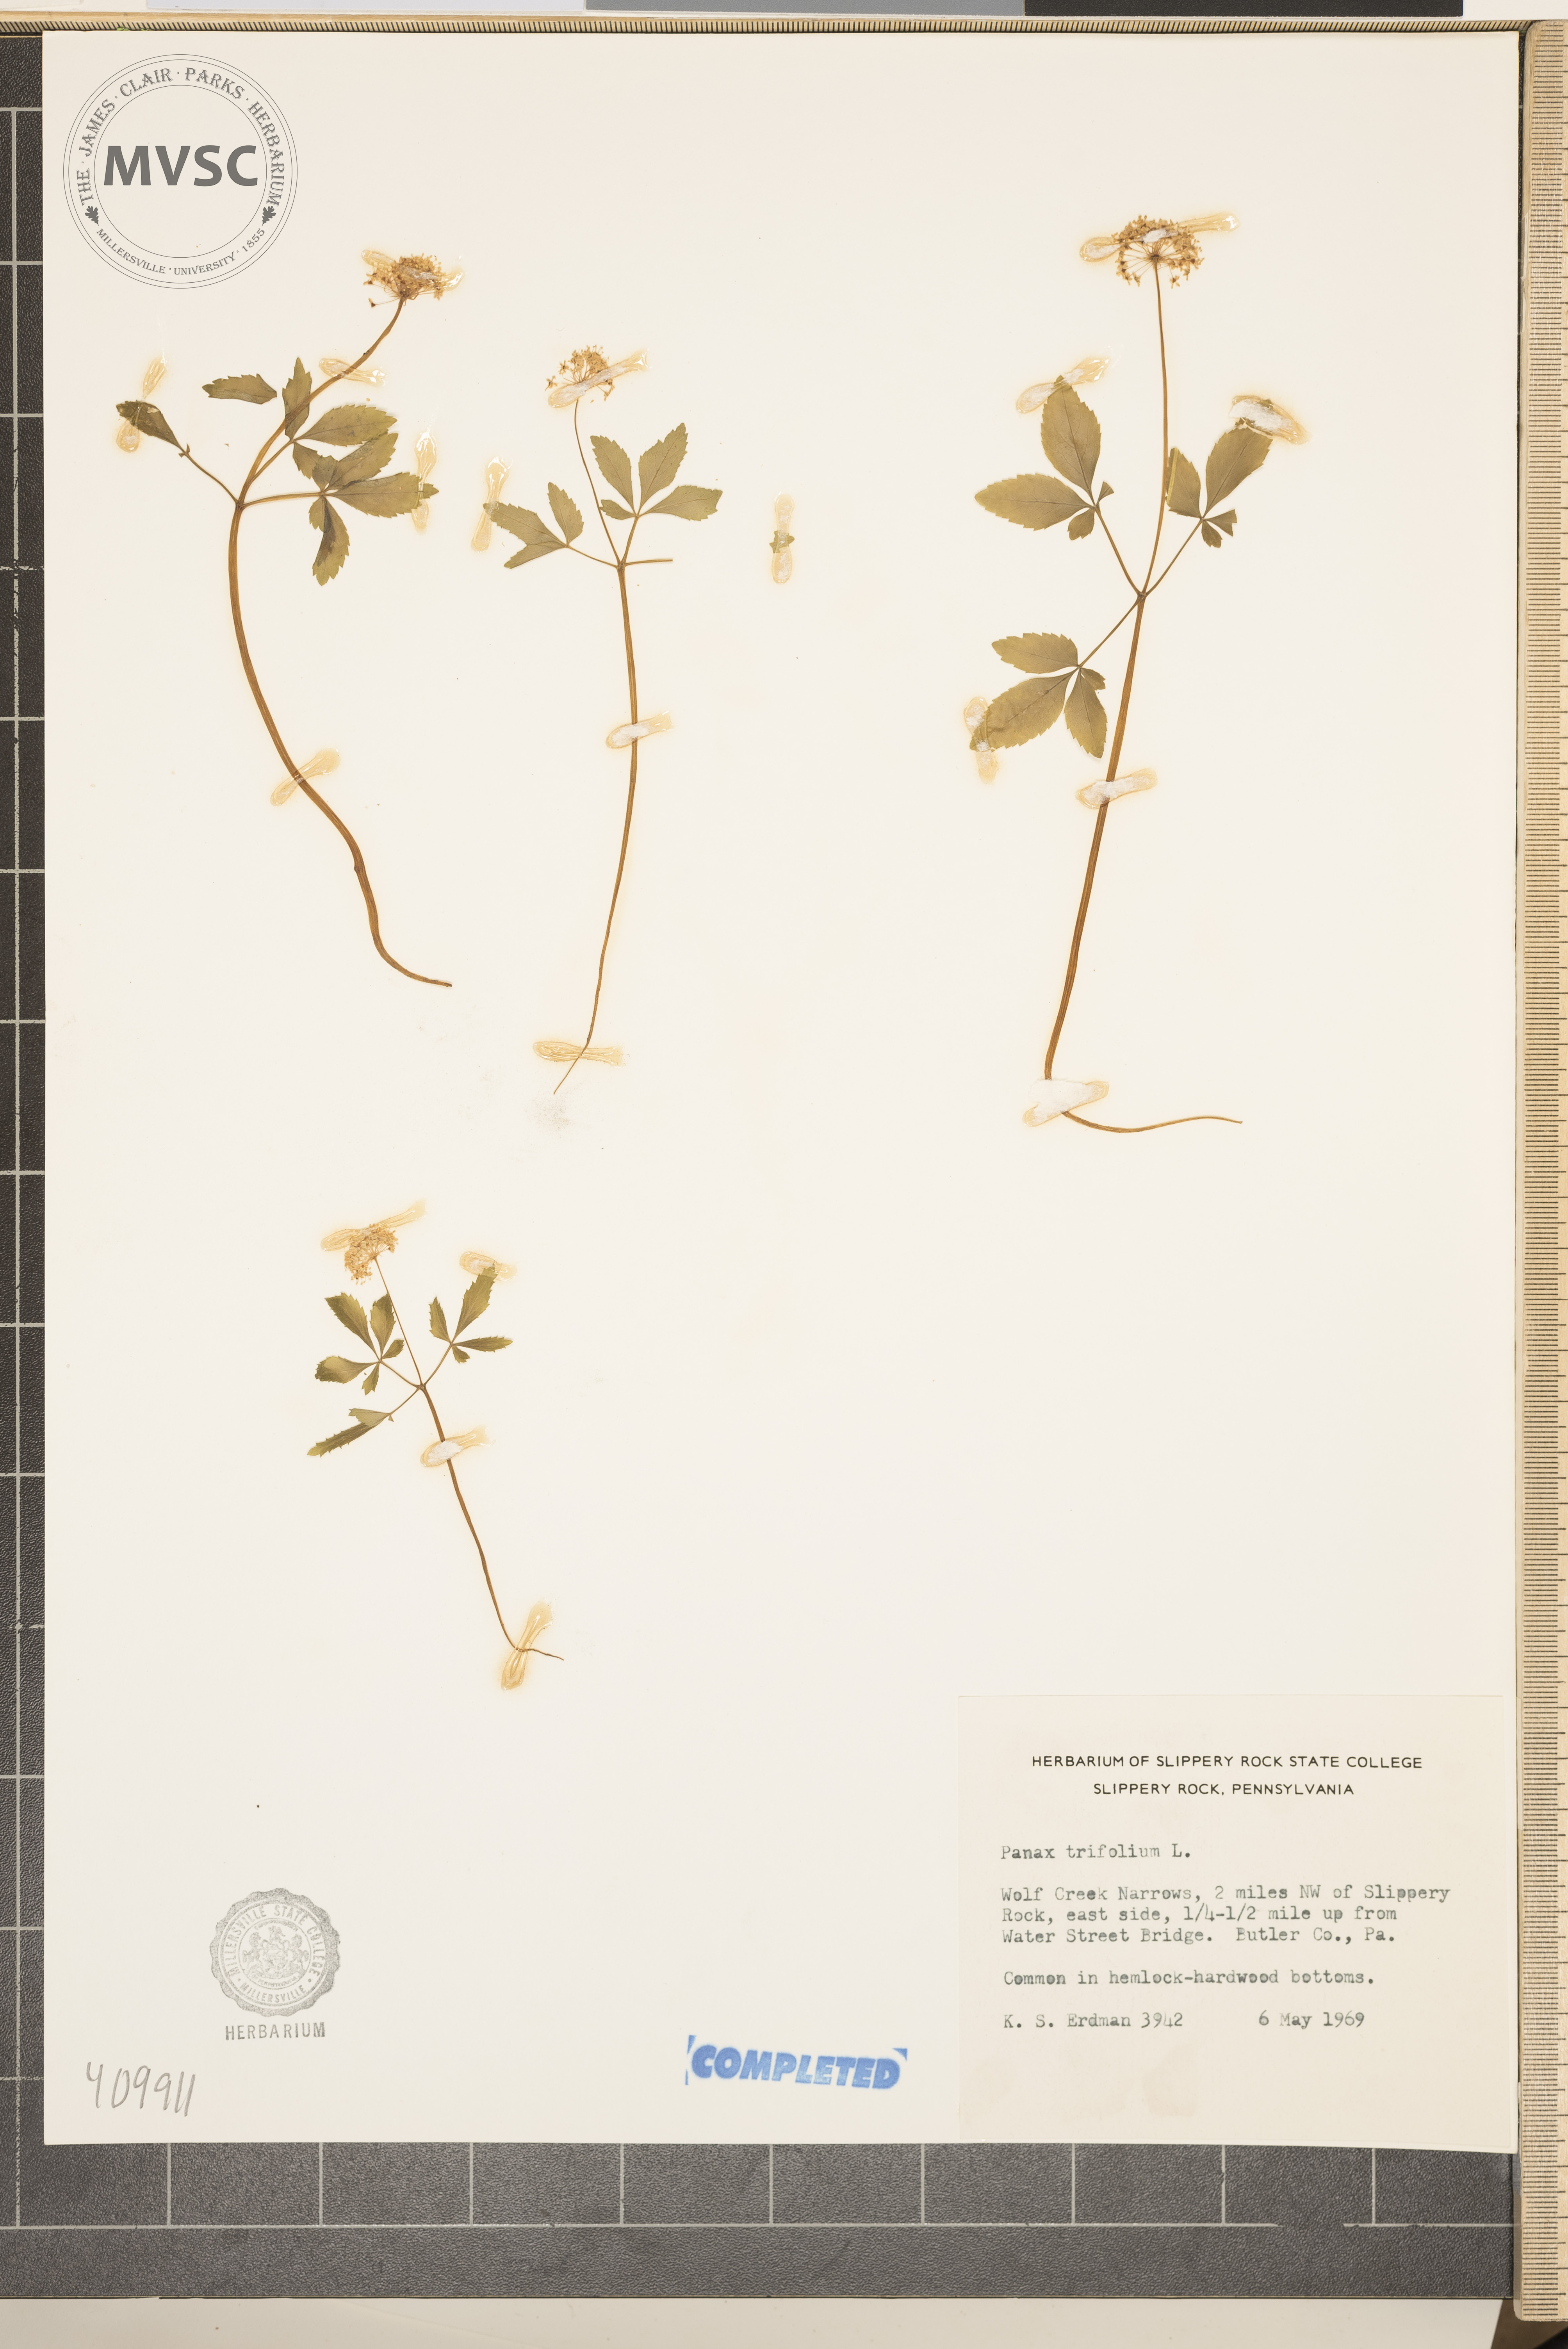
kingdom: Plantae
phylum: Tracheophyta
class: Magnoliopsida
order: Apiales
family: Araliaceae
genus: Panax
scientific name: Panax trifolius
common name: Dwarf ginseng
